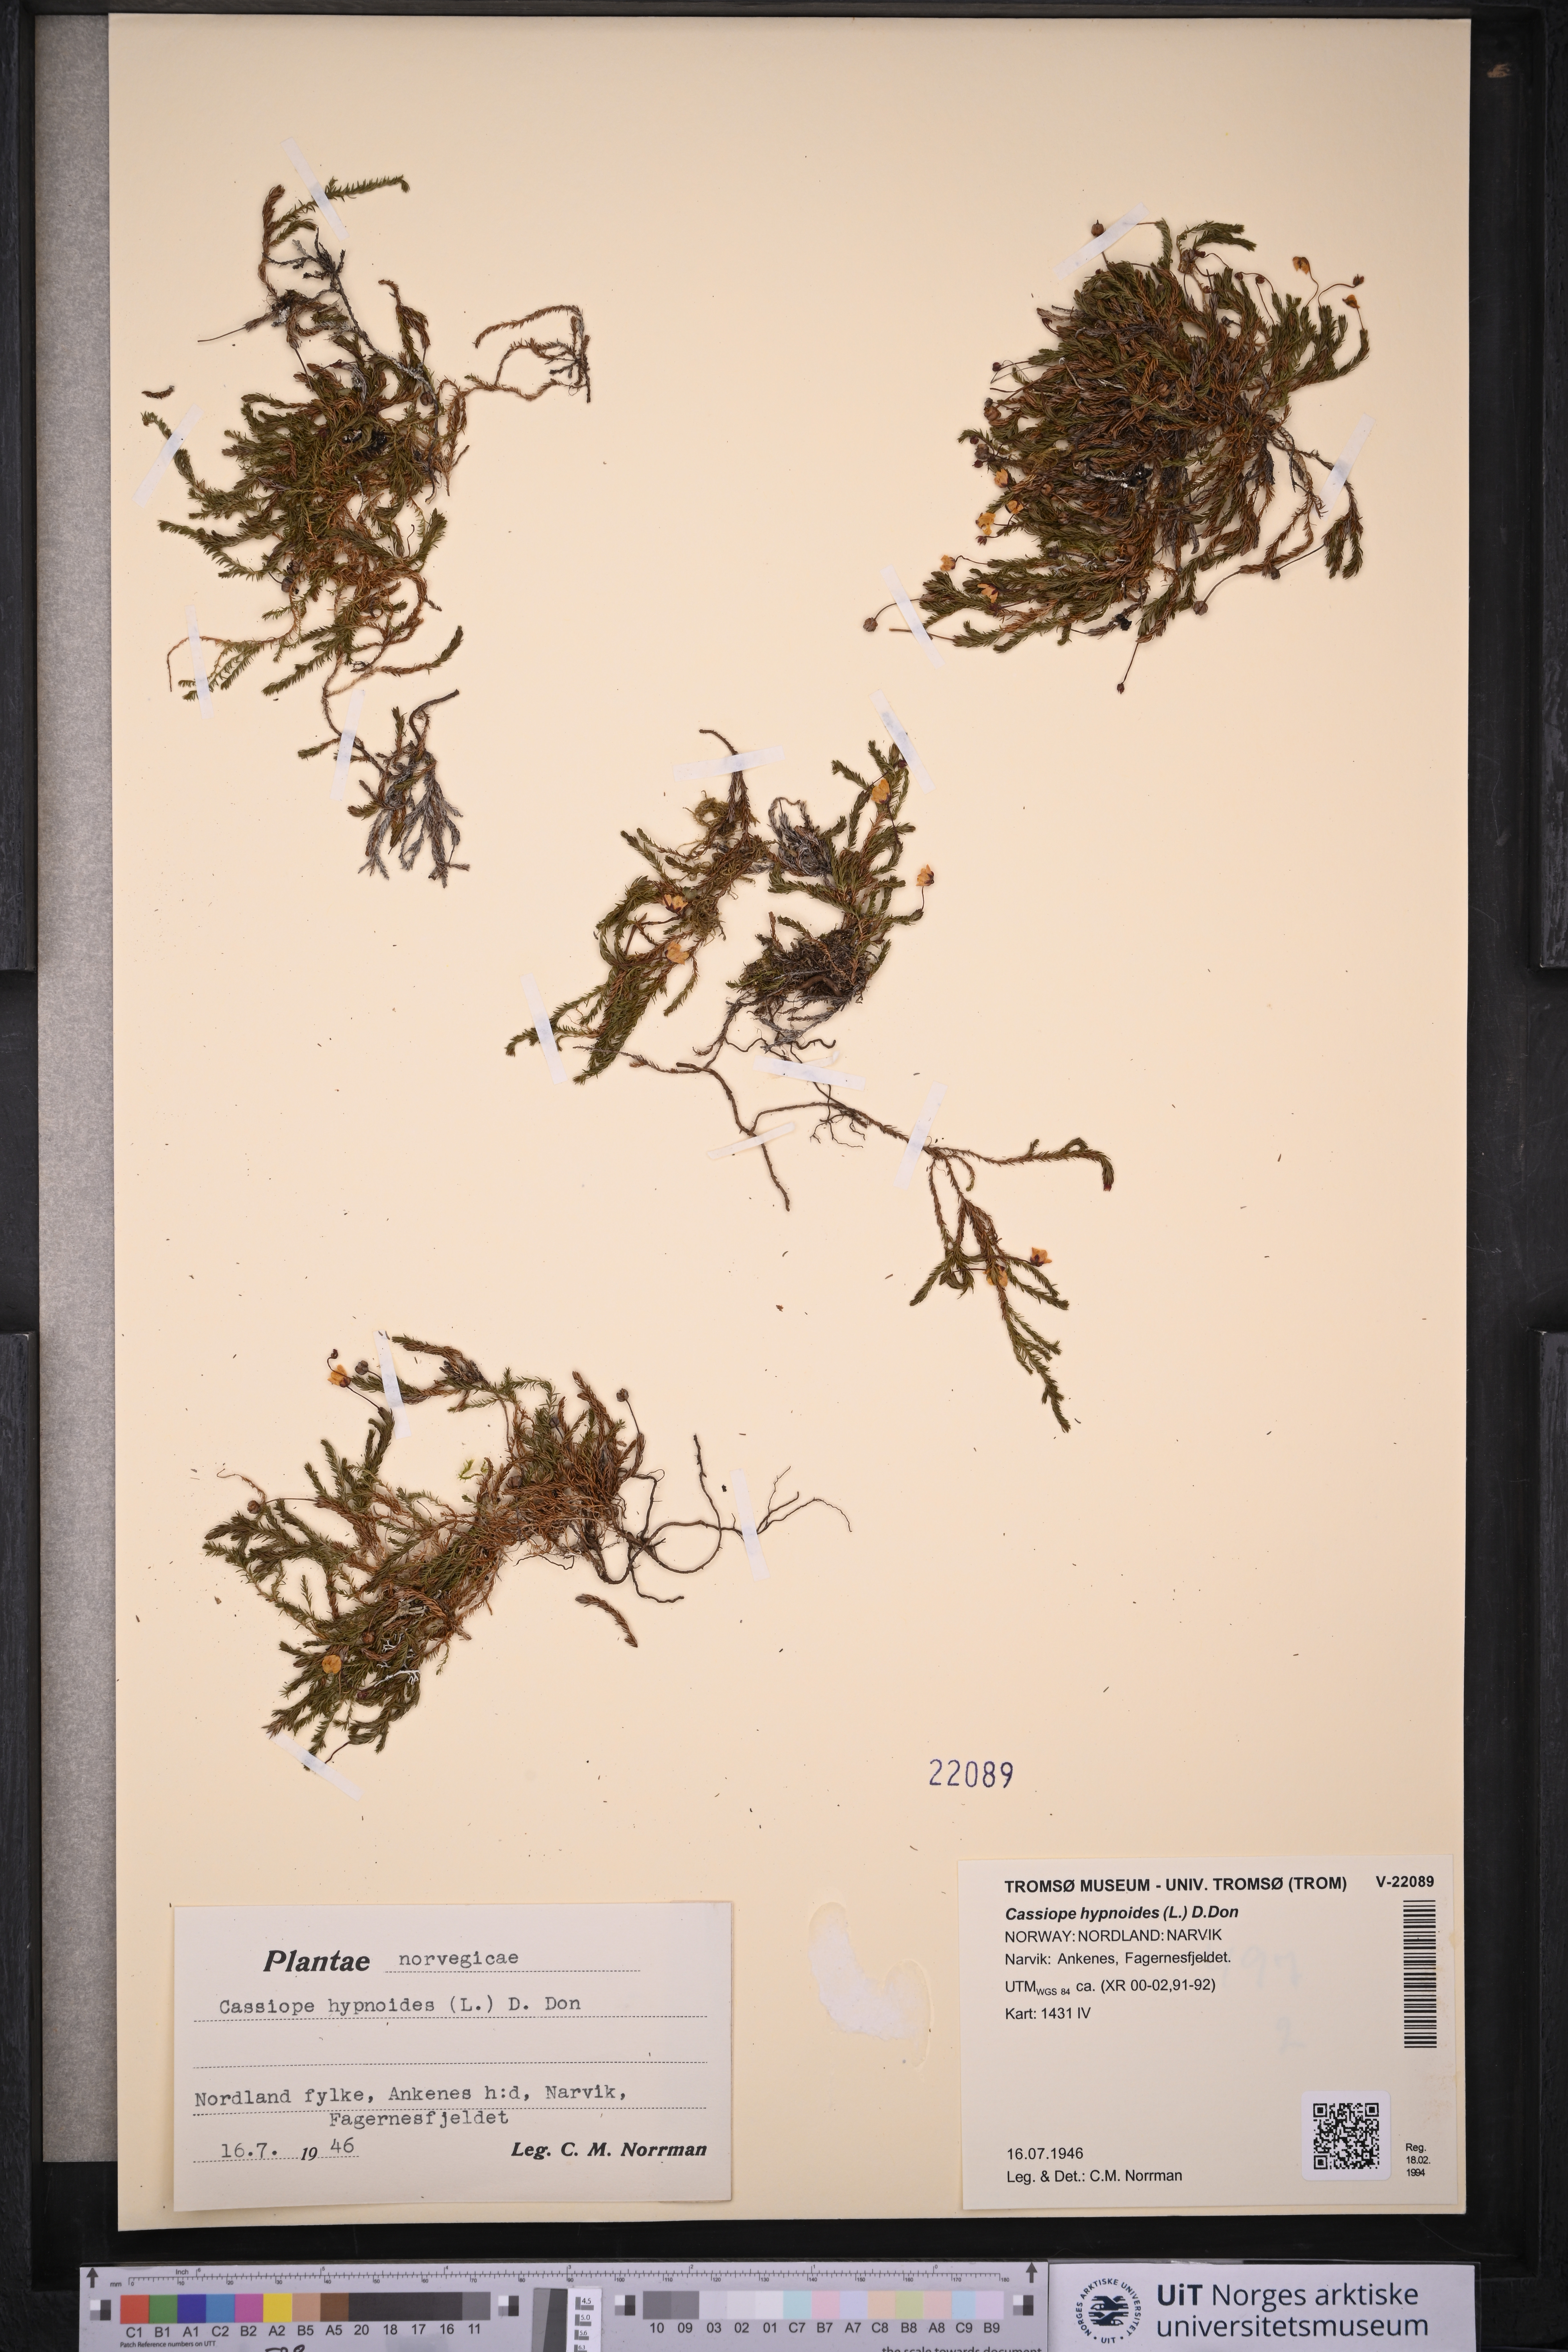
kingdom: Plantae
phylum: Tracheophyta
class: Magnoliopsida
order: Ericales
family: Ericaceae
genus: Harrimanella
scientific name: Harrimanella hypnoides
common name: Moss bell heather
